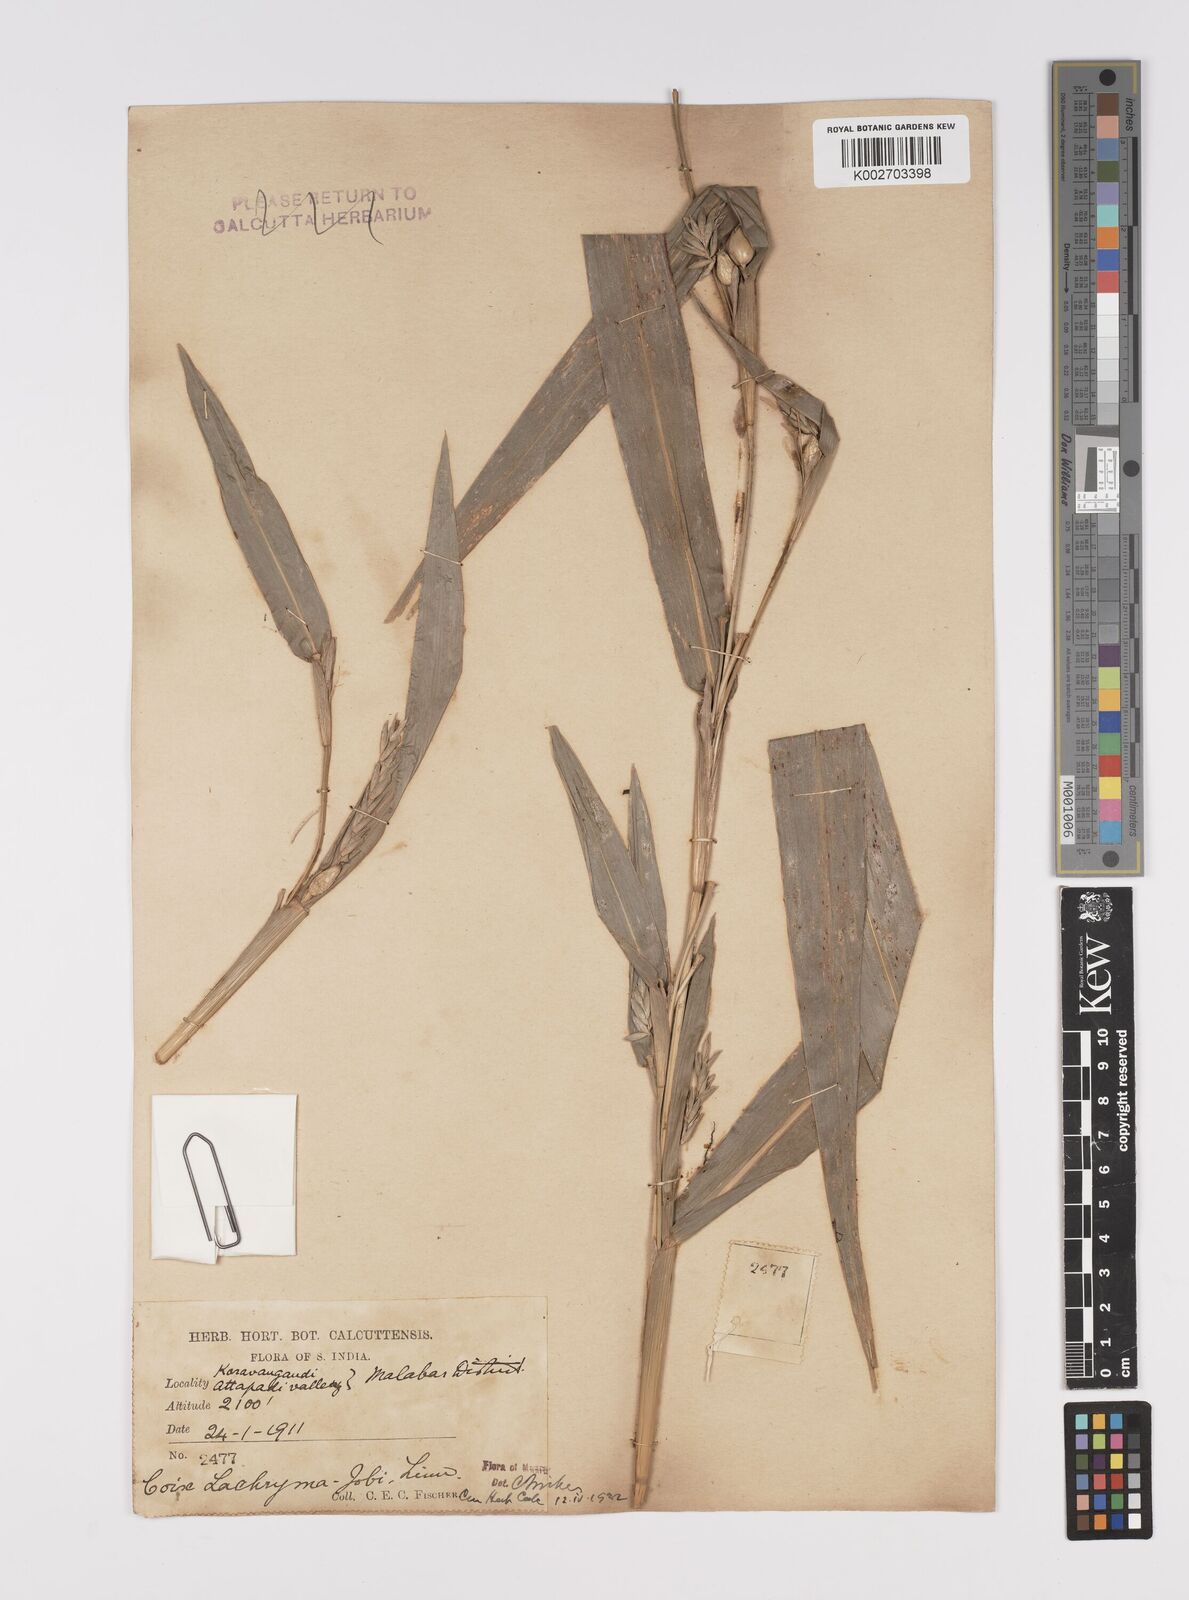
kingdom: Plantae
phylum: Tracheophyta
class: Liliopsida
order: Poales
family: Poaceae
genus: Coix
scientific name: Coix lacryma-jobi
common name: Job's tears
